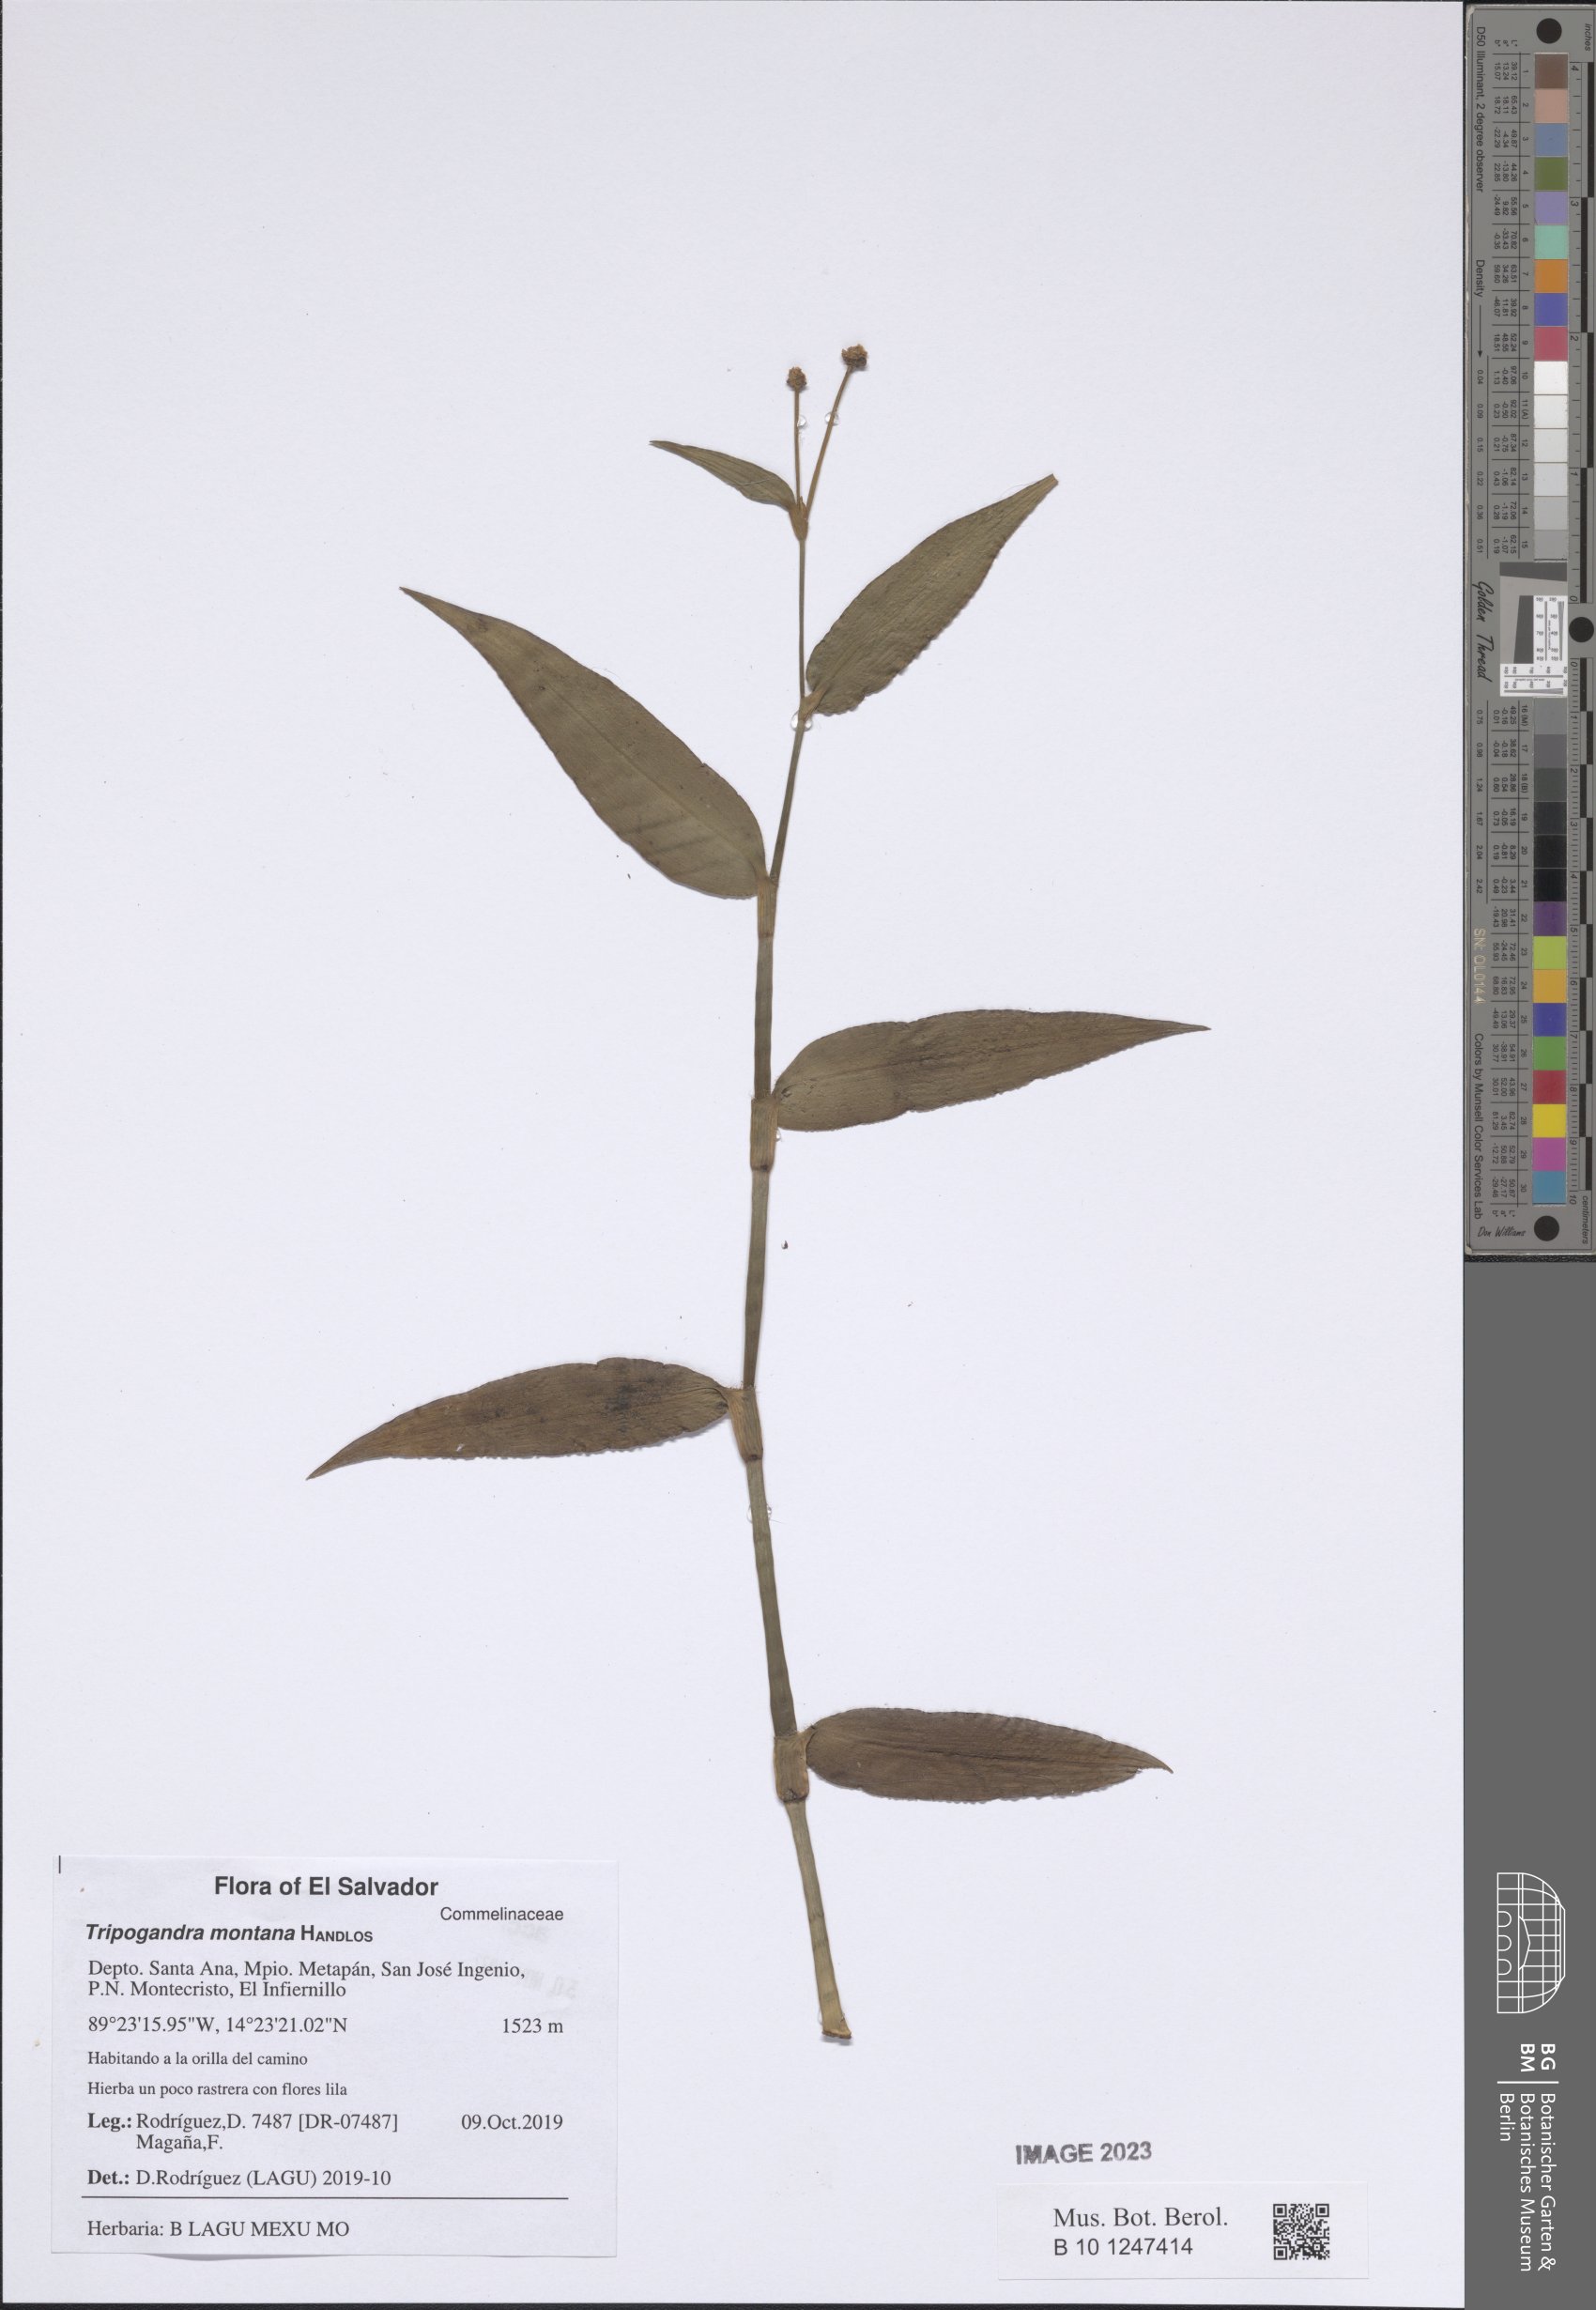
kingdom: Plantae
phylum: Tracheophyta
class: Liliopsida
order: Commelinales
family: Commelinaceae
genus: Callisia
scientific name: Callisia montana
